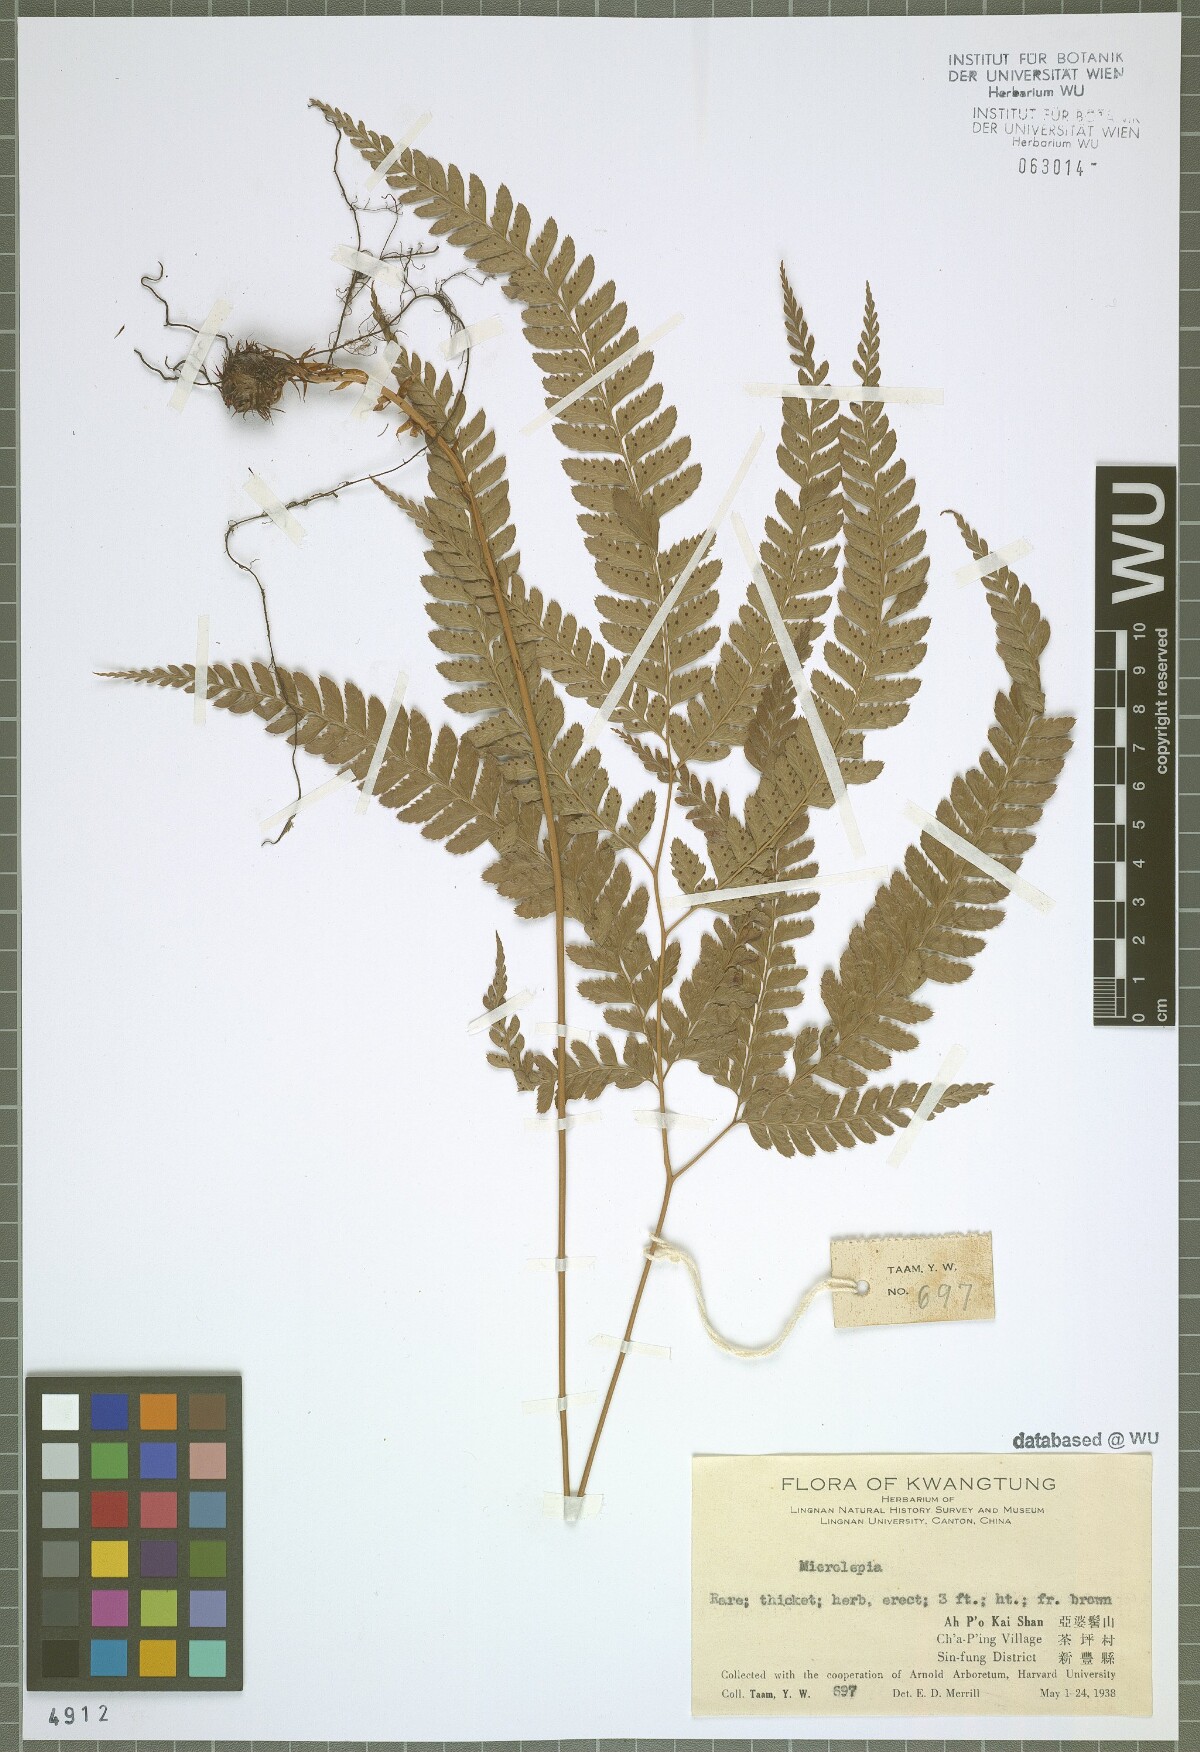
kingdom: Plantae
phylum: Tracheophyta
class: Polypodiopsida
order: Polypodiales
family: Dennstaedtiaceae
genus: Microlepia
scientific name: Microlepia
